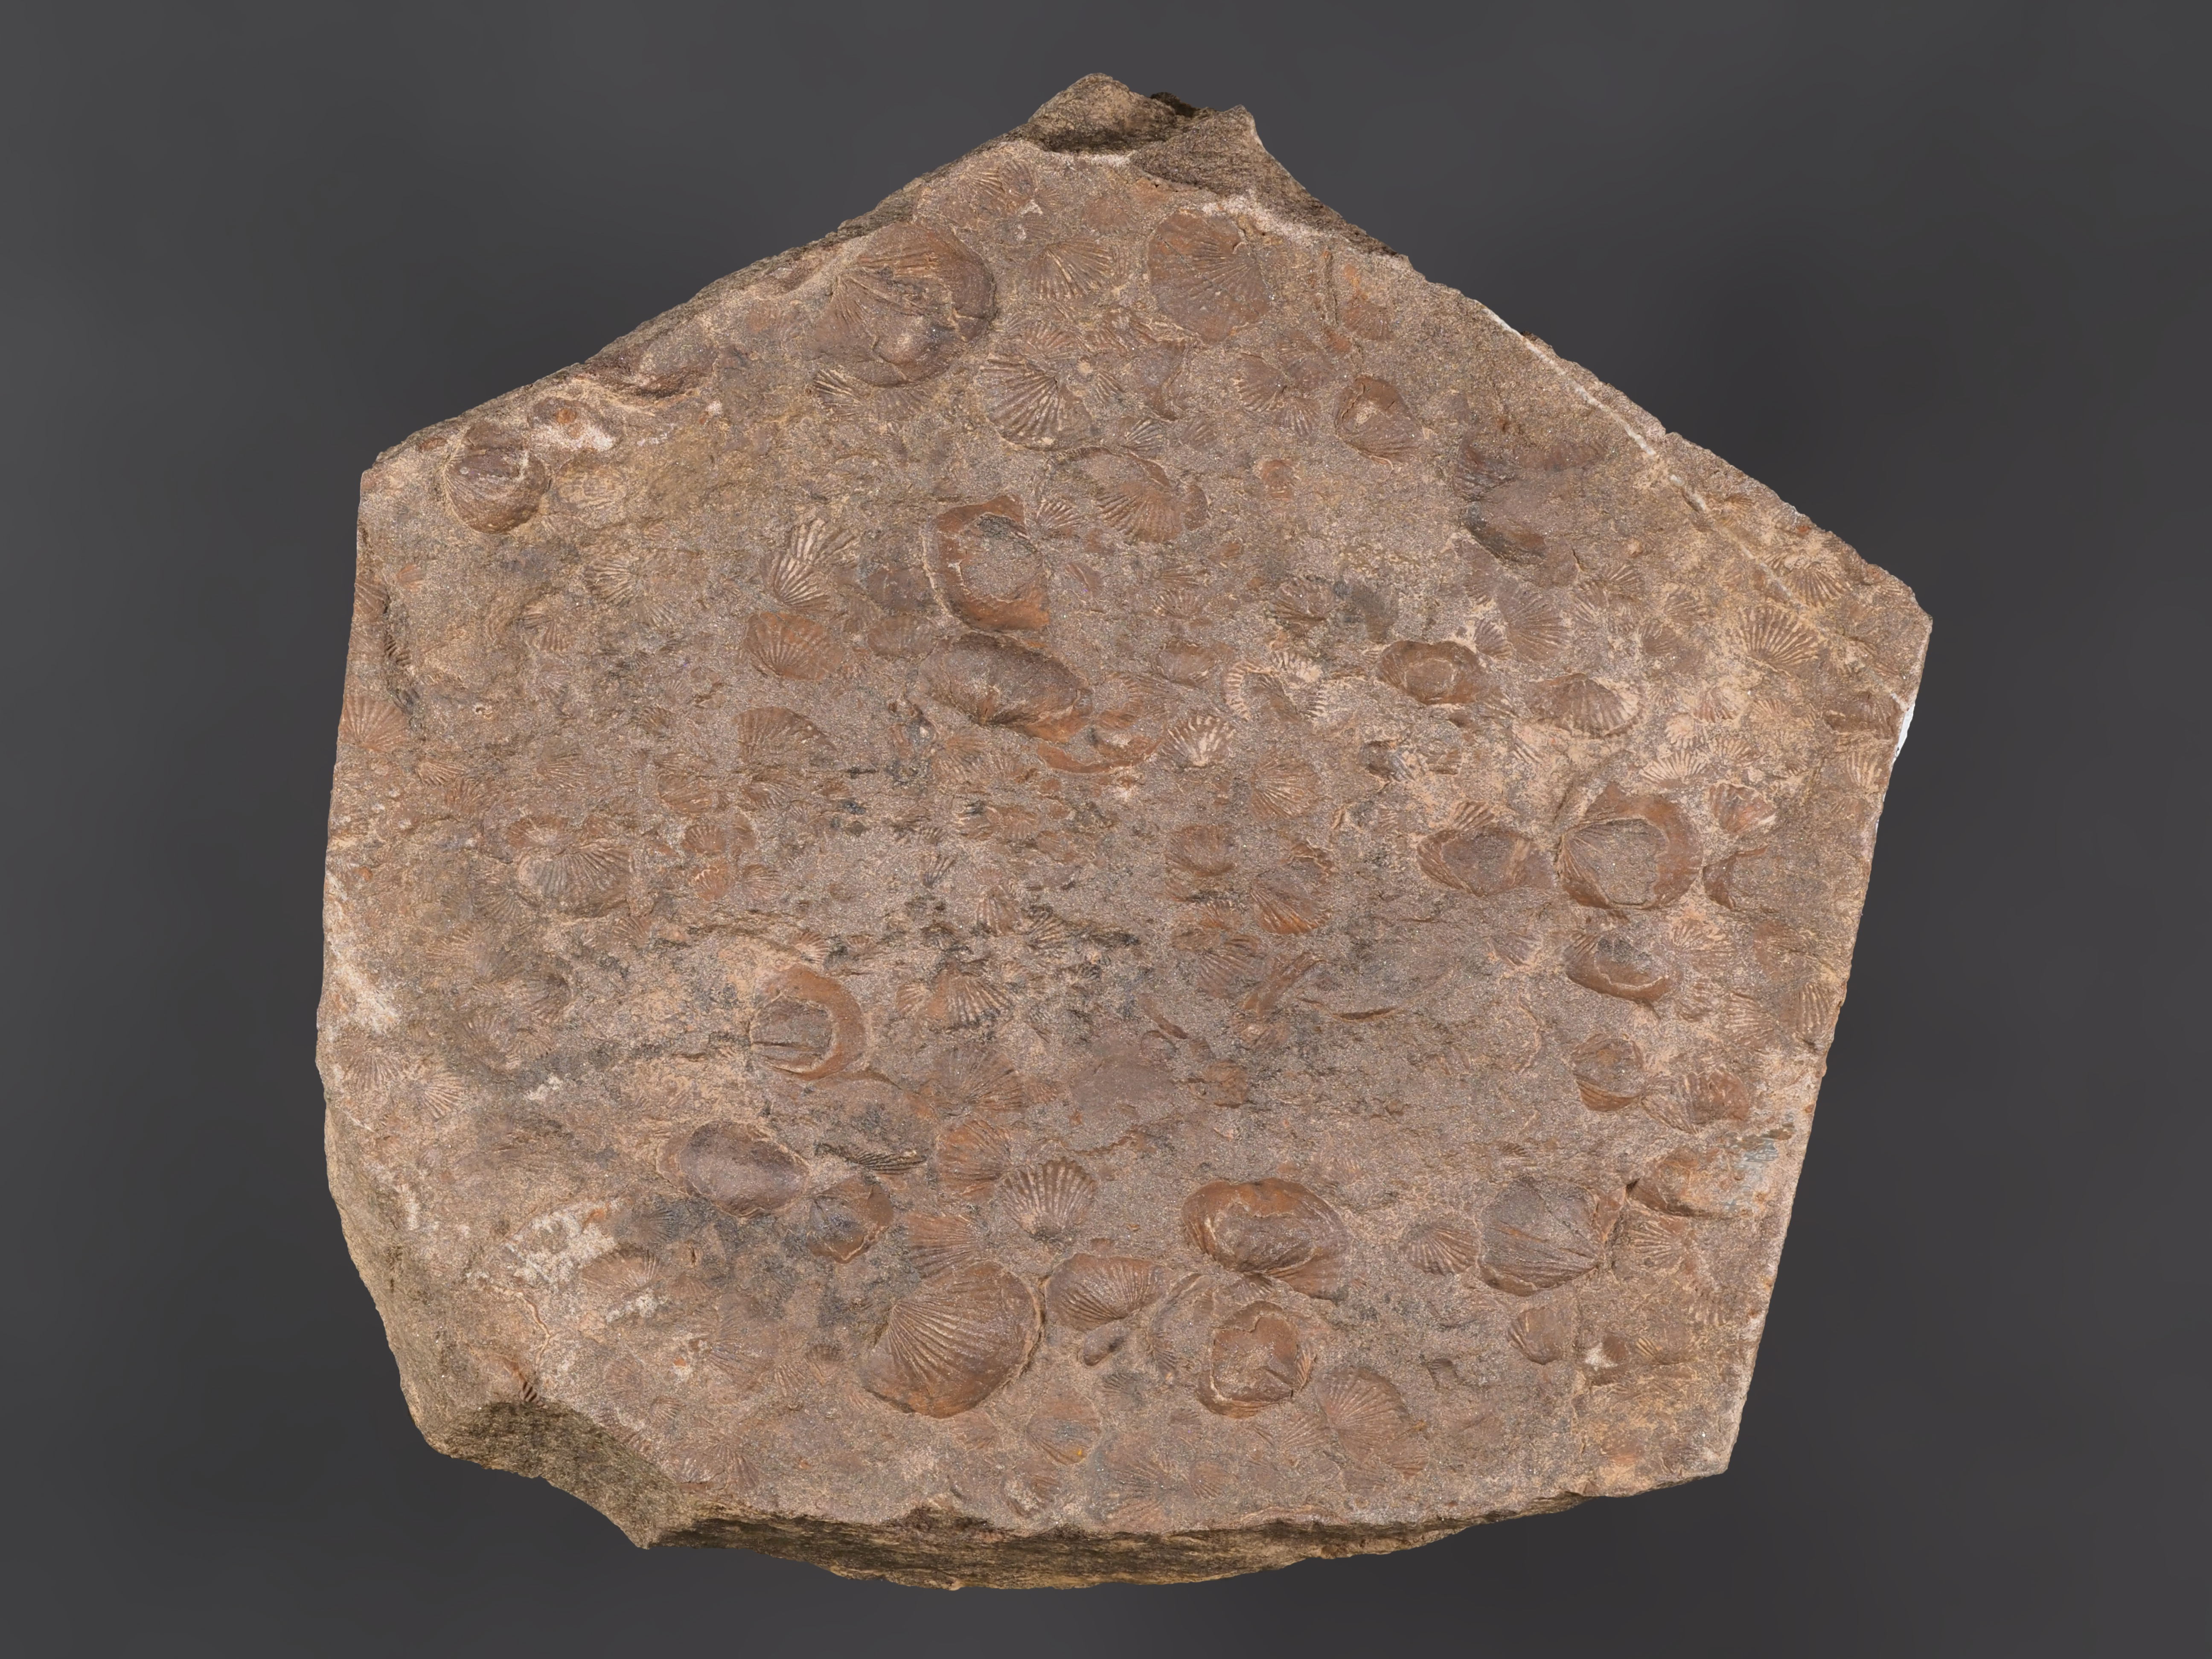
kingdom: Animalia
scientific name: Animalia
